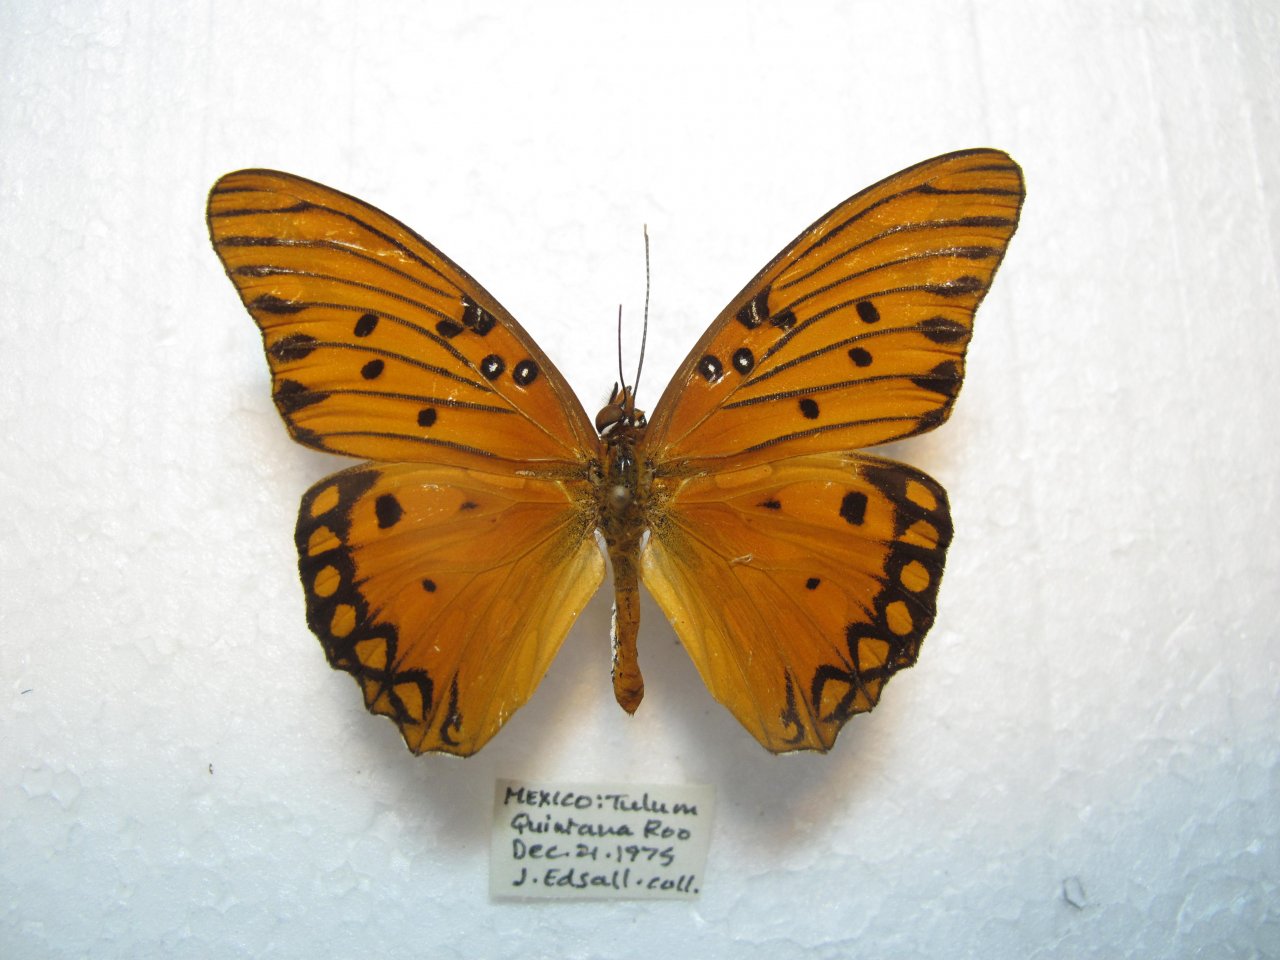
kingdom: Animalia
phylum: Arthropoda
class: Insecta
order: Lepidoptera
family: Nymphalidae
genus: Dione
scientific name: Dione vanillae
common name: Gulf Fritillary
